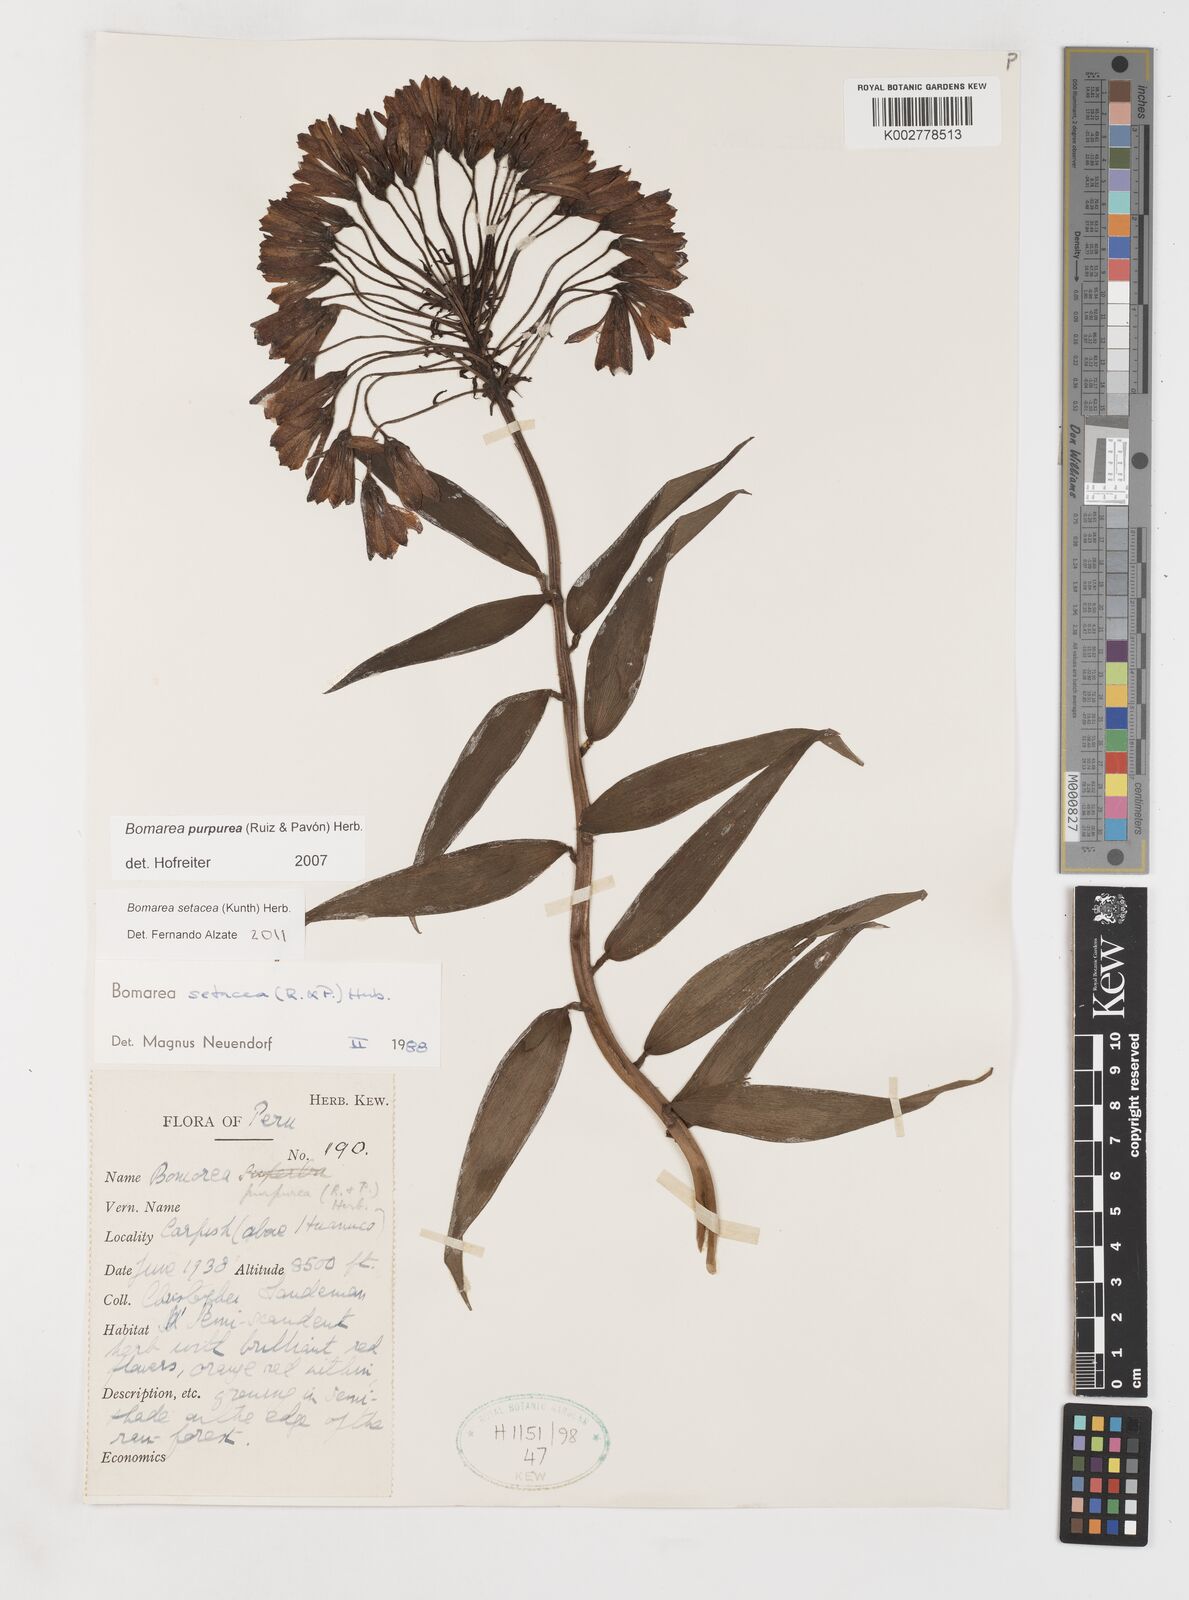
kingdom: Plantae
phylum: Tracheophyta
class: Liliopsida
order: Liliales
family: Alstroemeriaceae
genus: Bomarea
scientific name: Bomarea setacea
